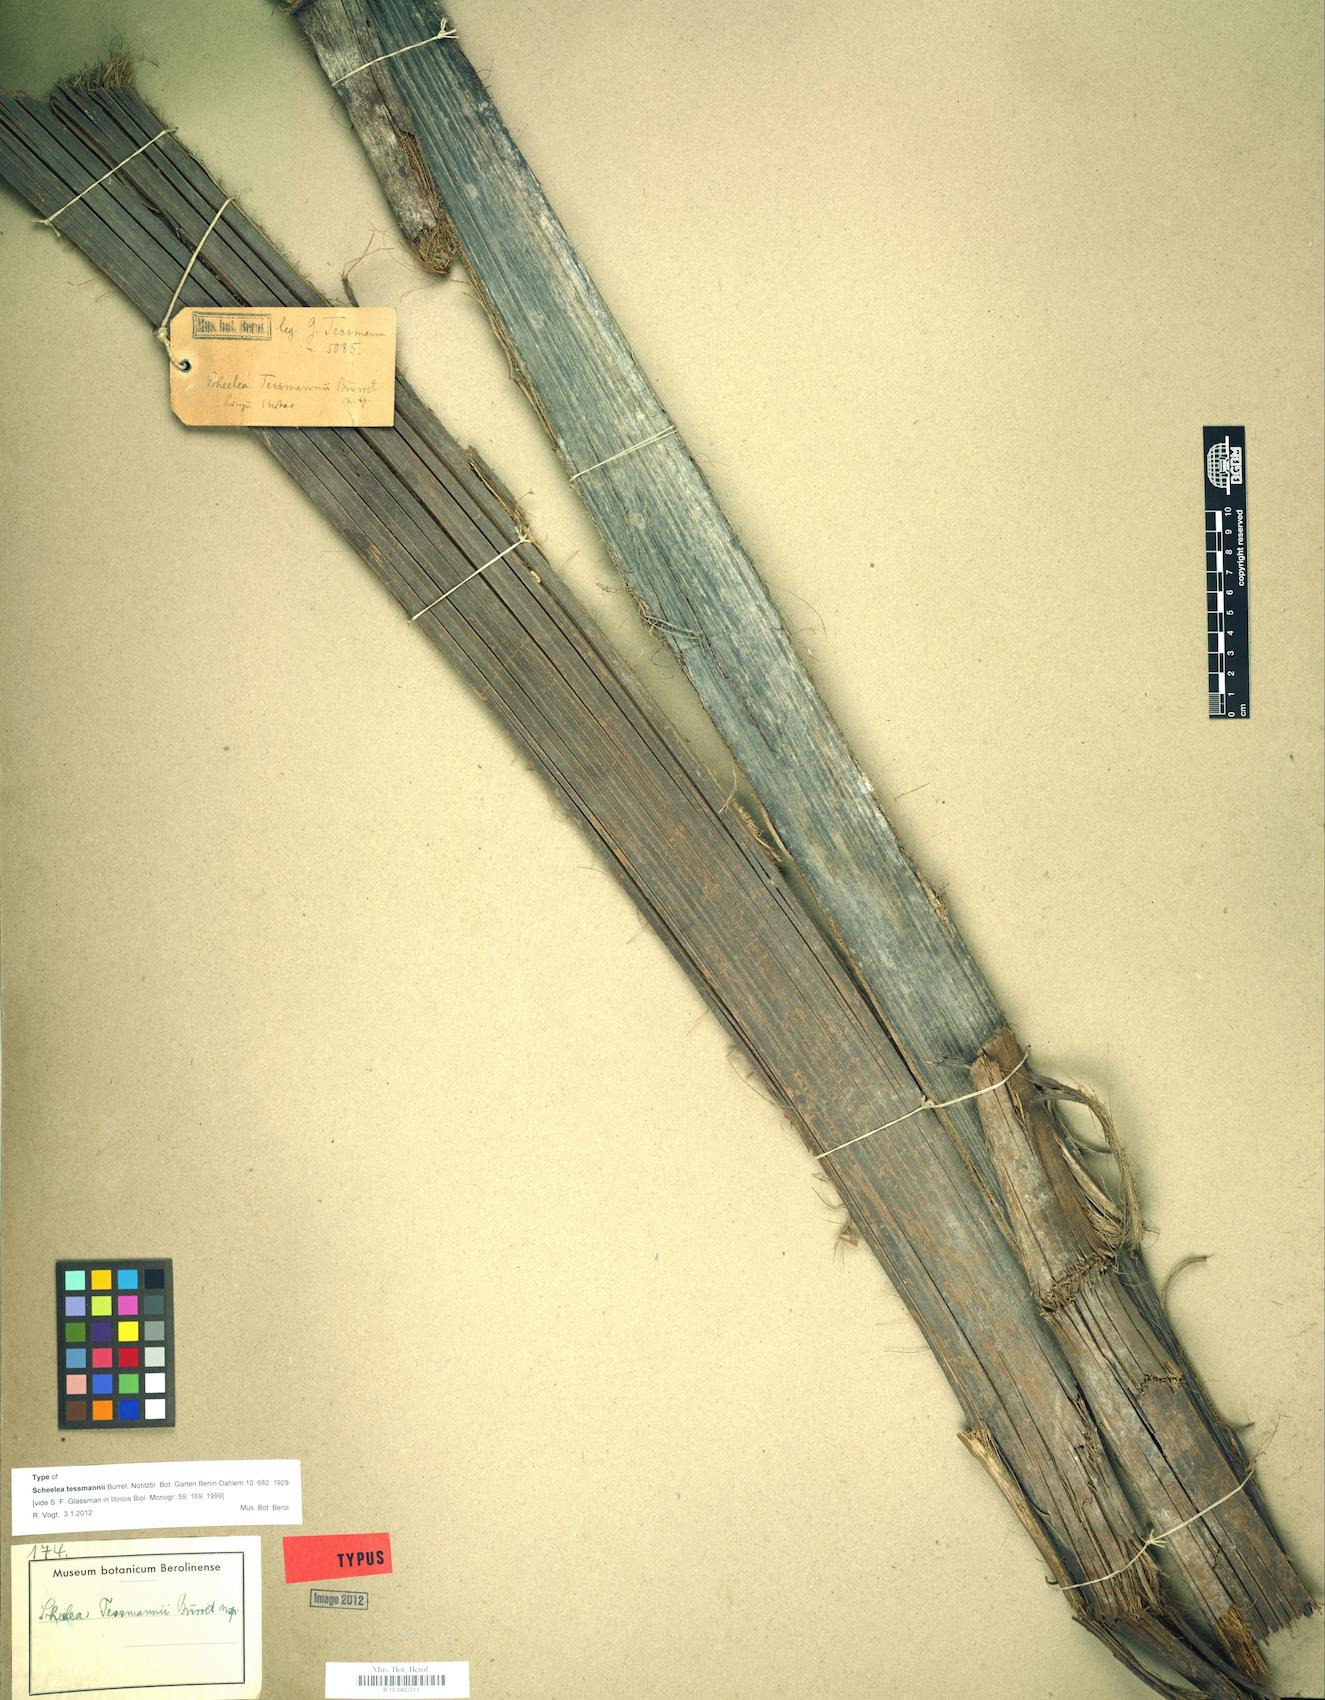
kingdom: Plantae
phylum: Tracheophyta
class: Liliopsida
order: Arecales
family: Arecaceae
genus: Attalea
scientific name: Attalea peruviana
